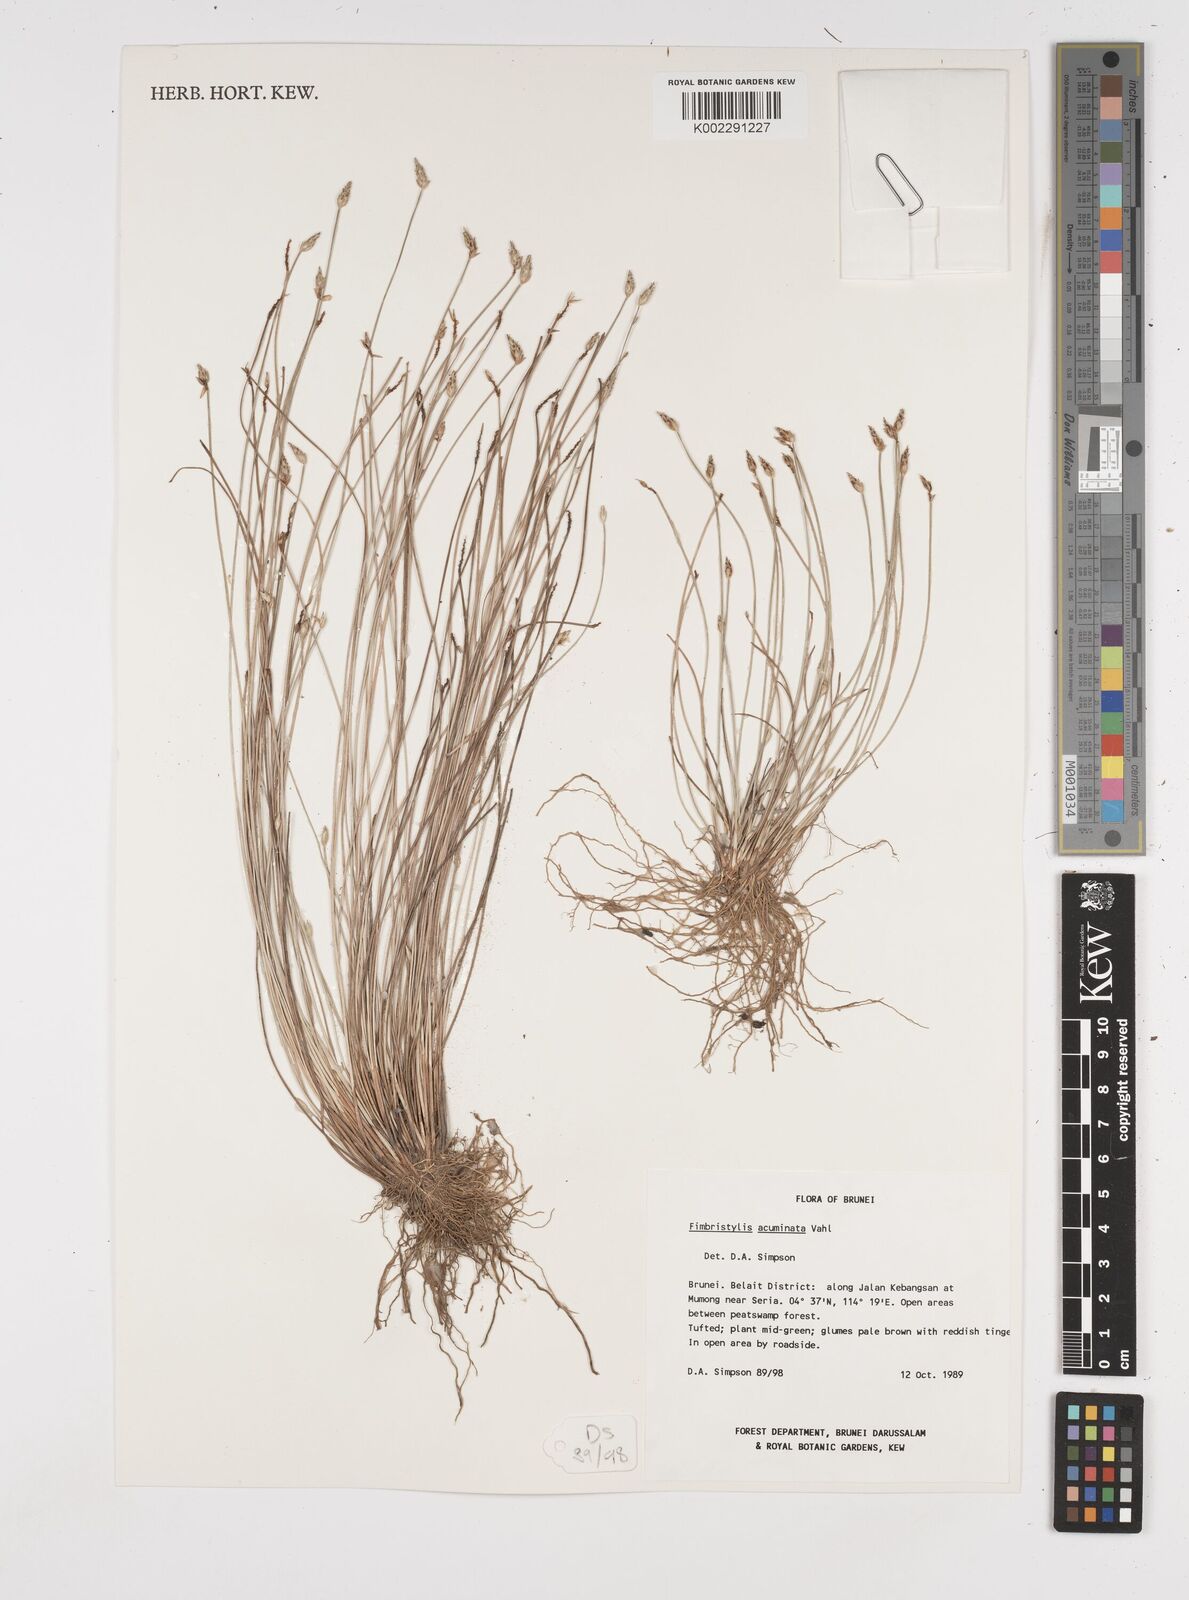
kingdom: Plantae
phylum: Tracheophyta
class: Liliopsida
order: Poales
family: Cyperaceae
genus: Fimbristylis
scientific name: Fimbristylis acuminata
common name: Pointed fimbristylis
